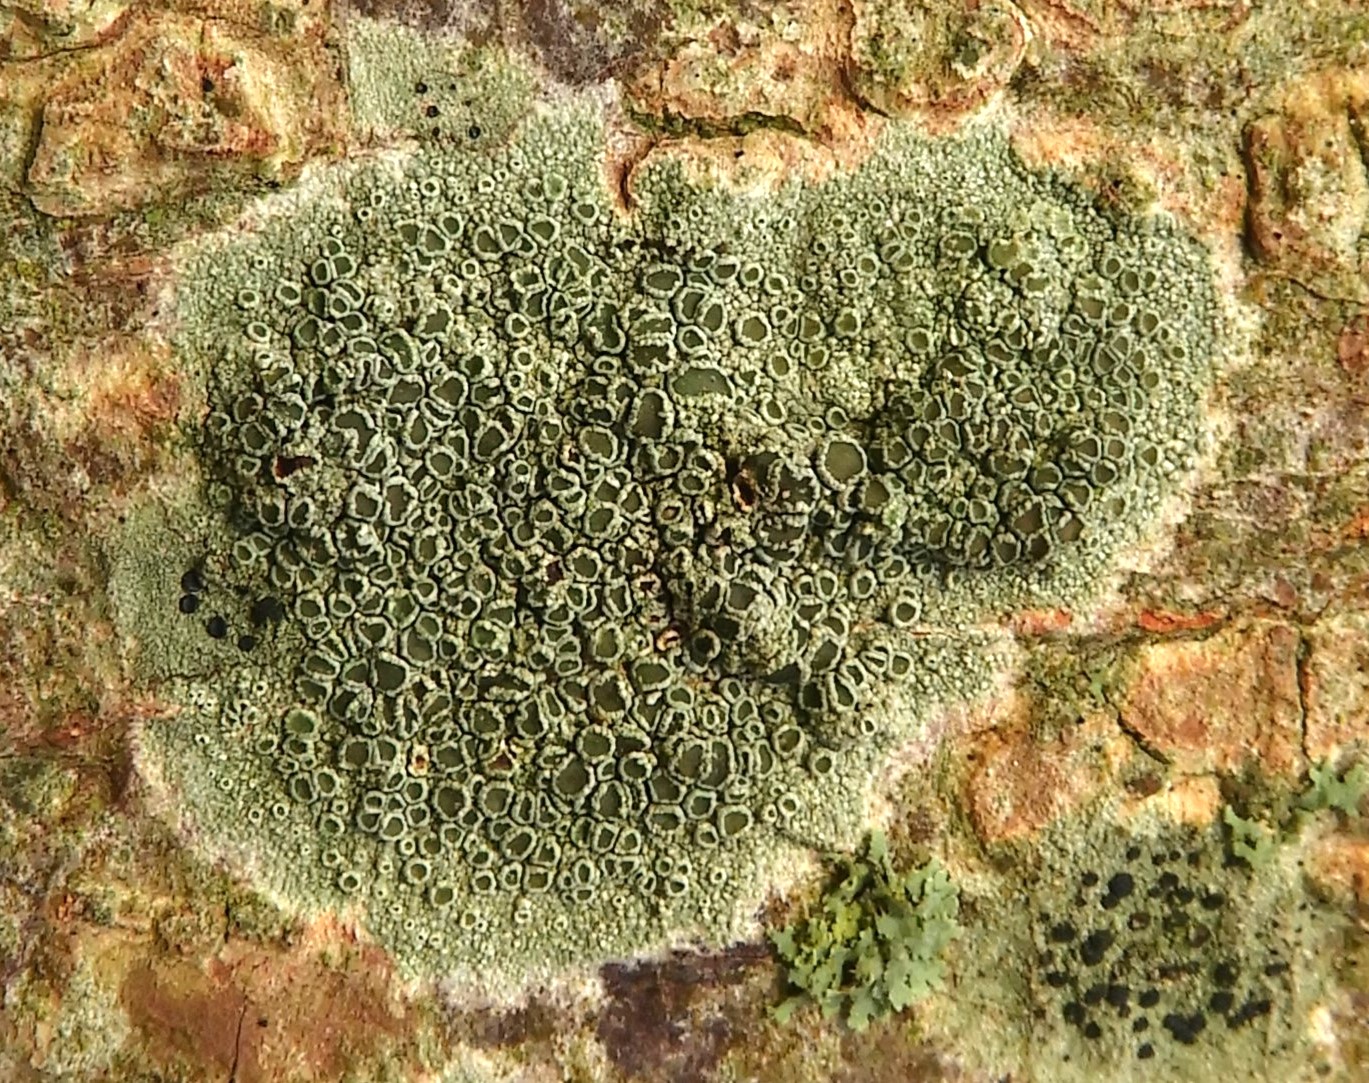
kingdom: Fungi
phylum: Ascomycota
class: Lecanoromycetes
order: Lecanorales
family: Lecanoraceae
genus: Lecanora
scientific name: Lecanora chlarotera
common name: brun kantskivelav
